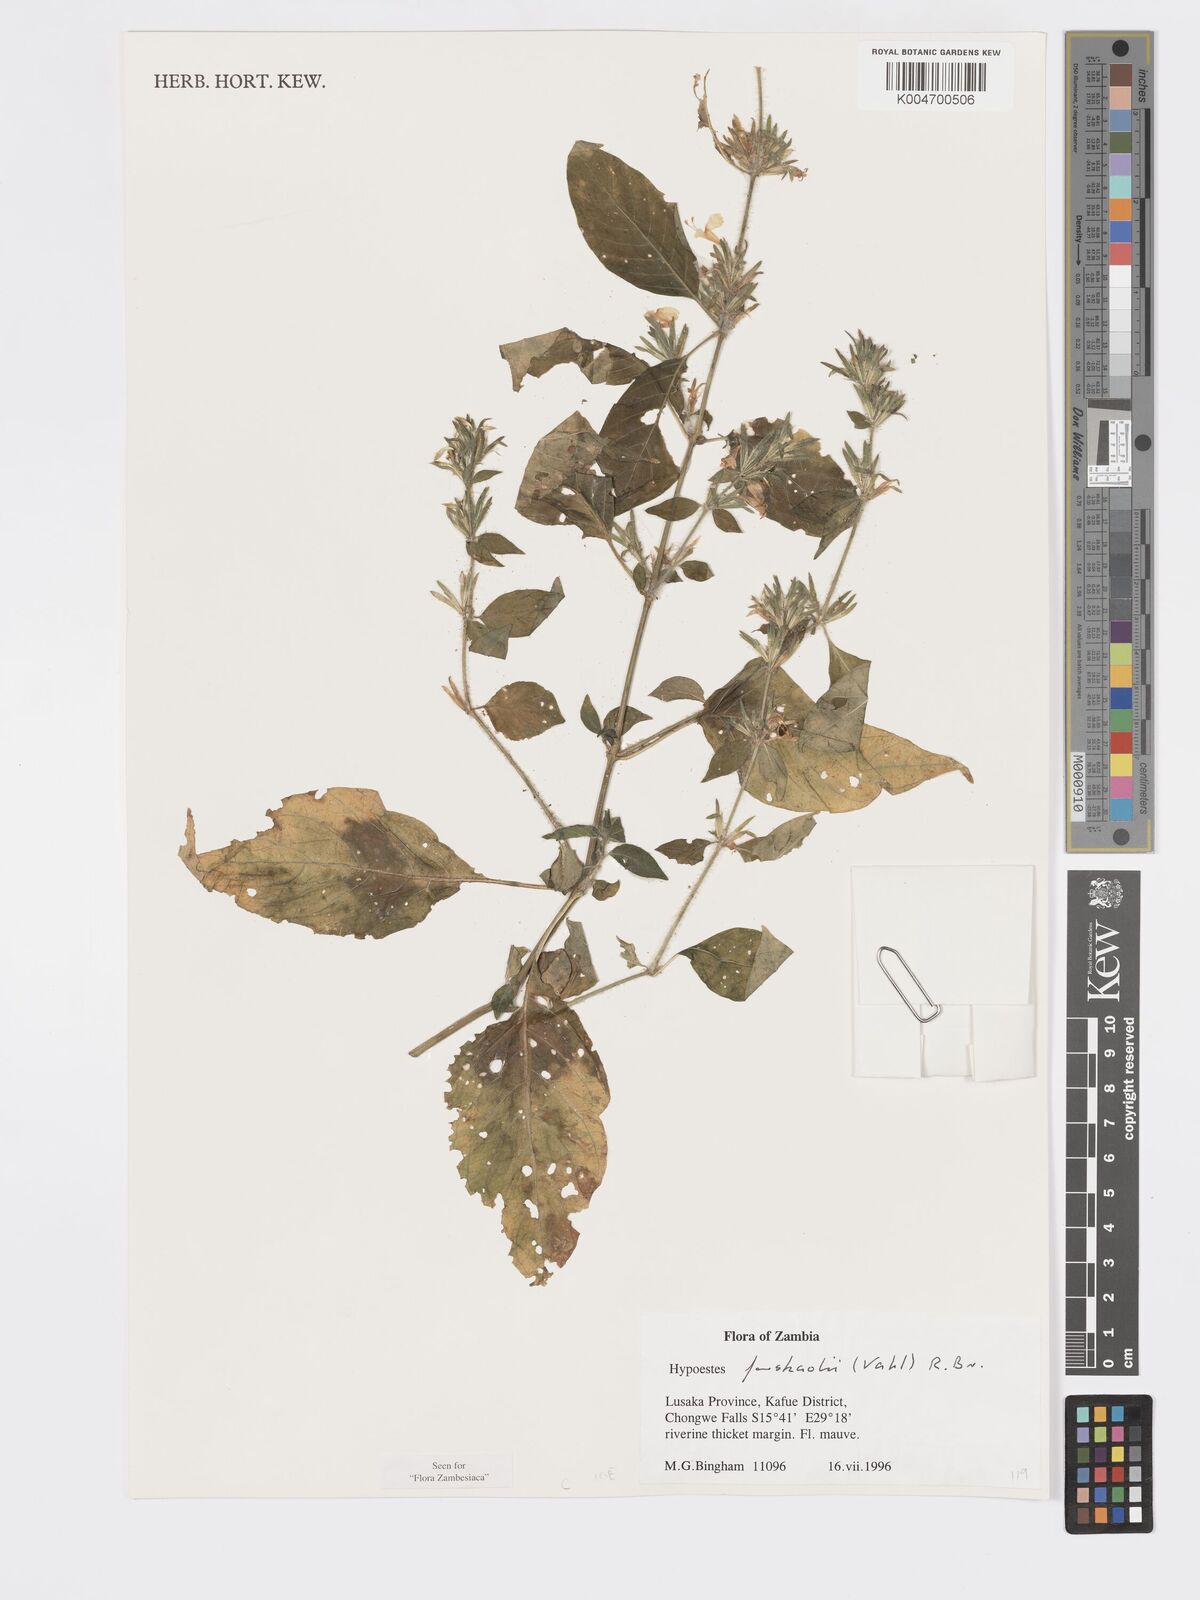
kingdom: Plantae
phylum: Tracheophyta
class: Magnoliopsida
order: Lamiales
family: Acanthaceae
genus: Hypoestes
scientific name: Hypoestes forskaolii
